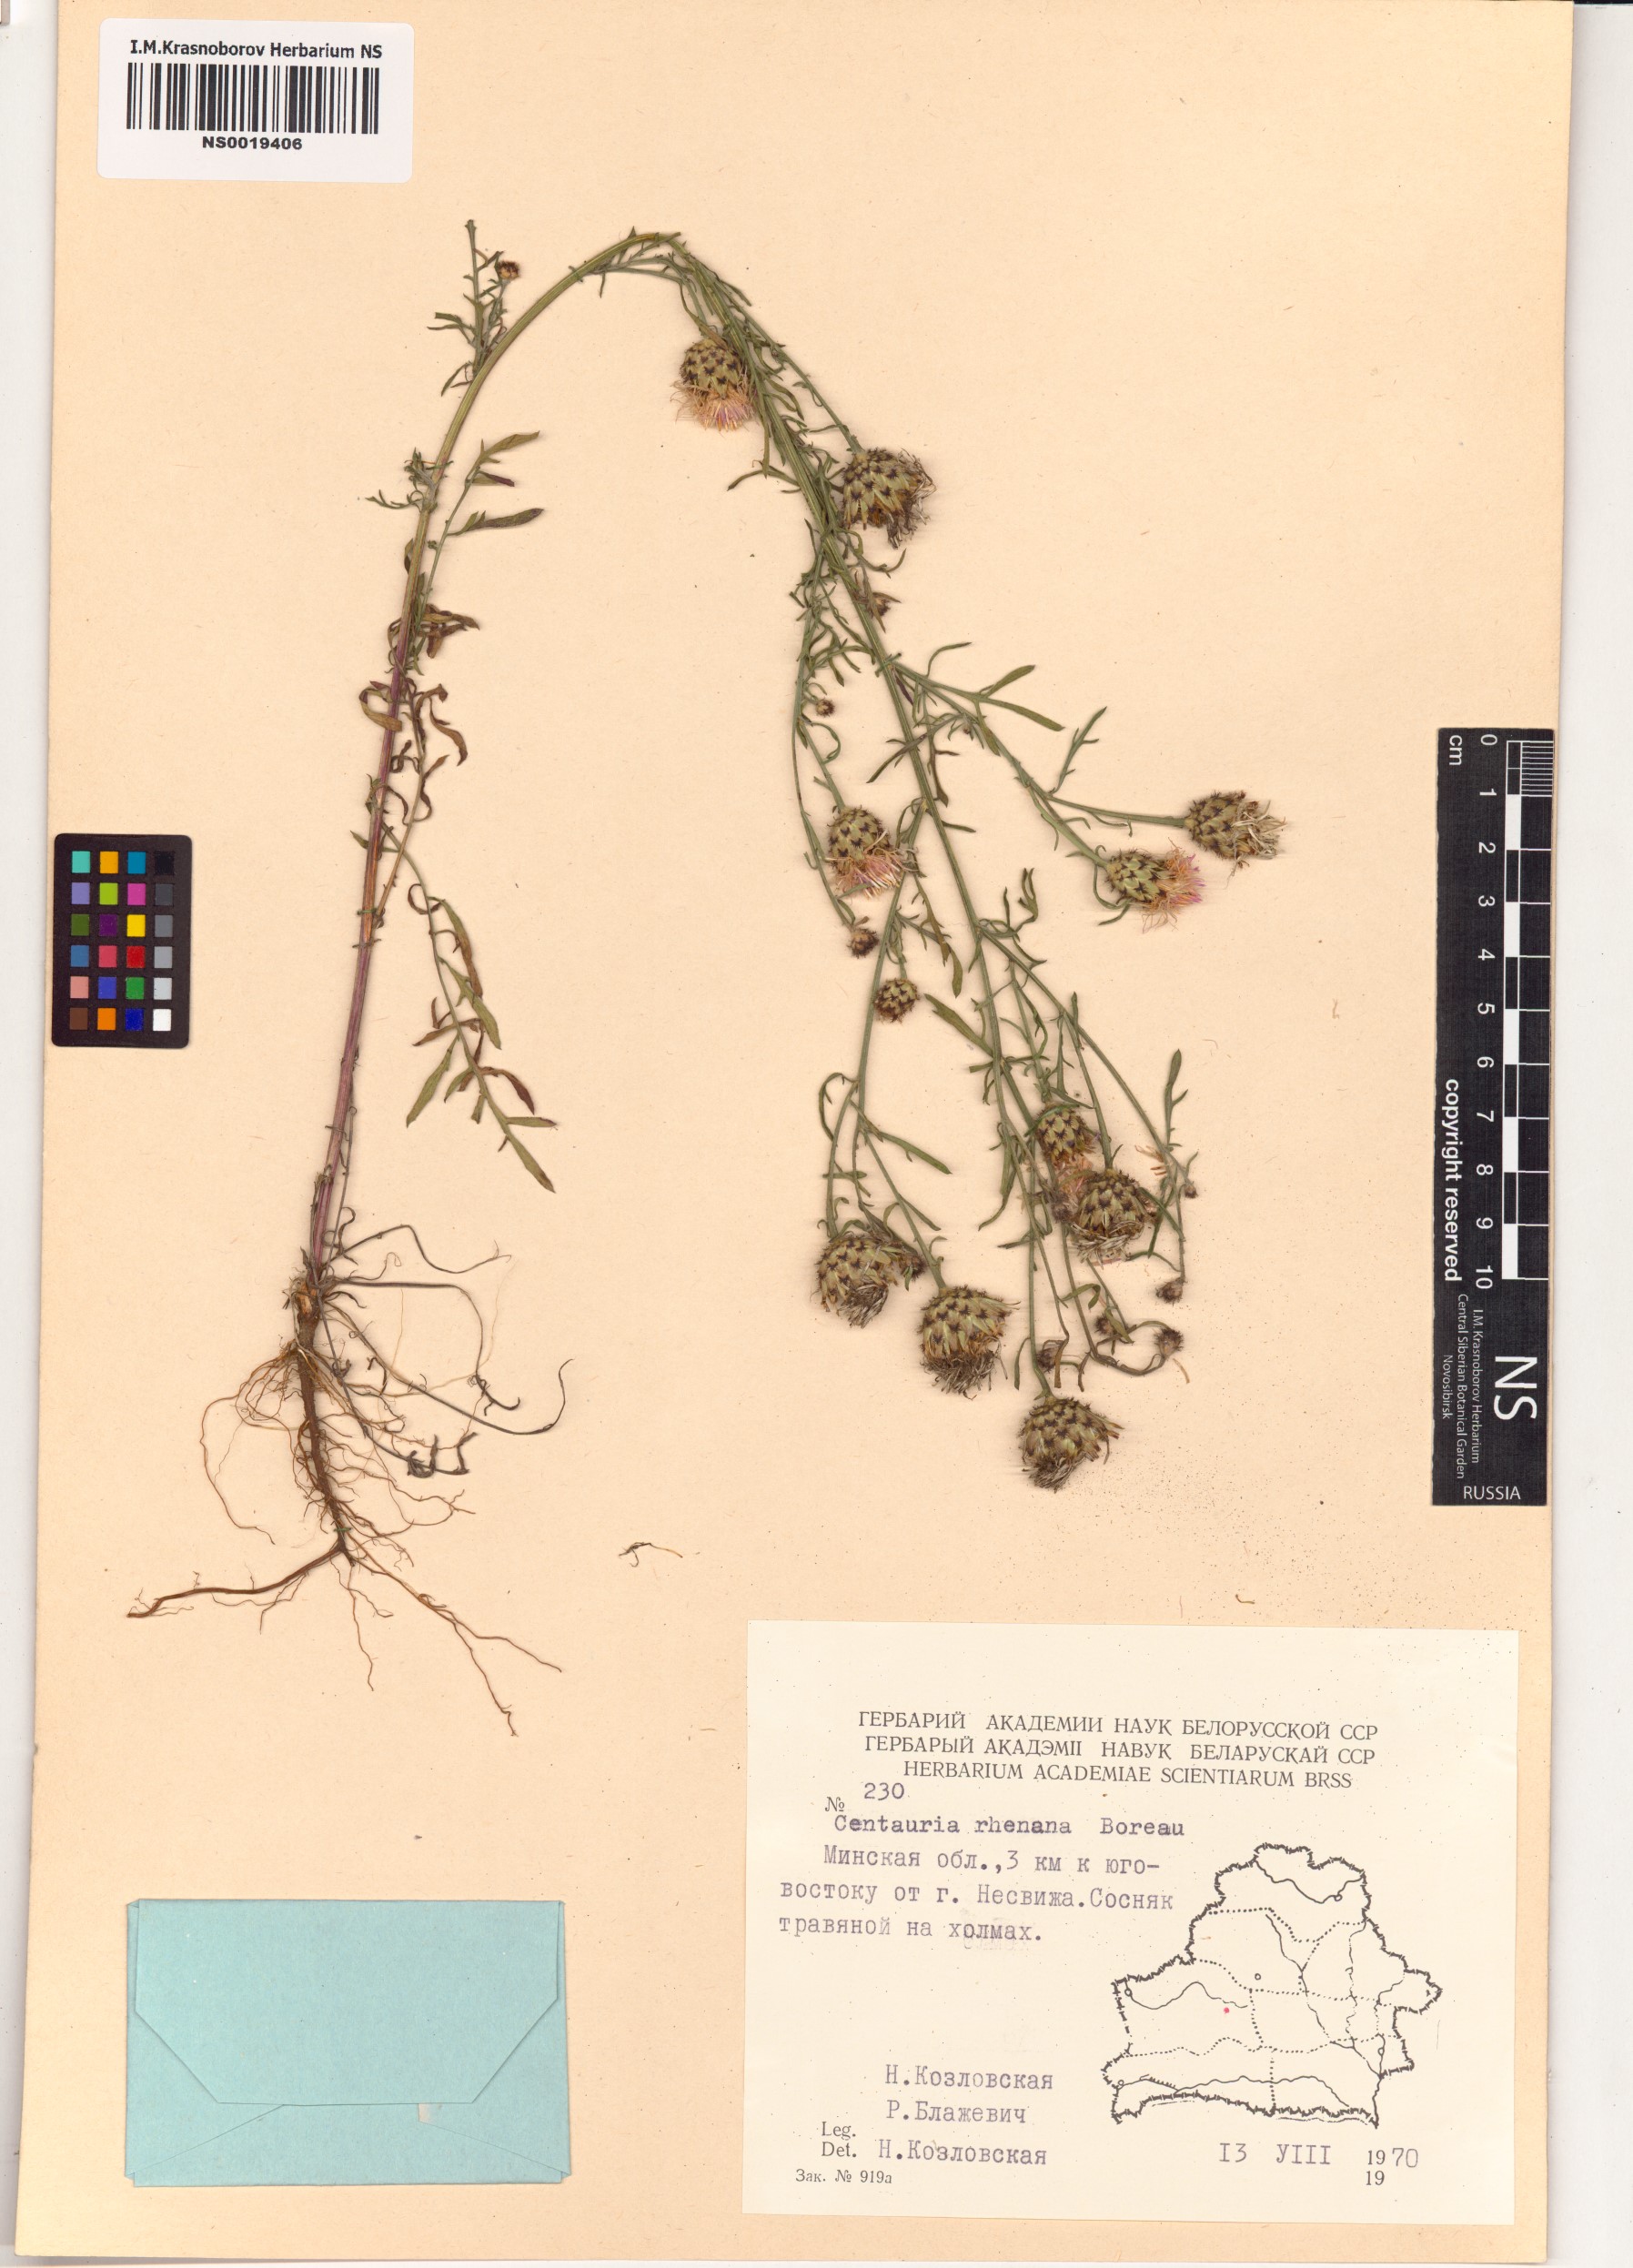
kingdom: Plantae
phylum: Tracheophyta
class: Magnoliopsida
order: Asterales
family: Asteraceae
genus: Centaurea
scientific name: Centaurea stoebe
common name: Spotted knapweed
